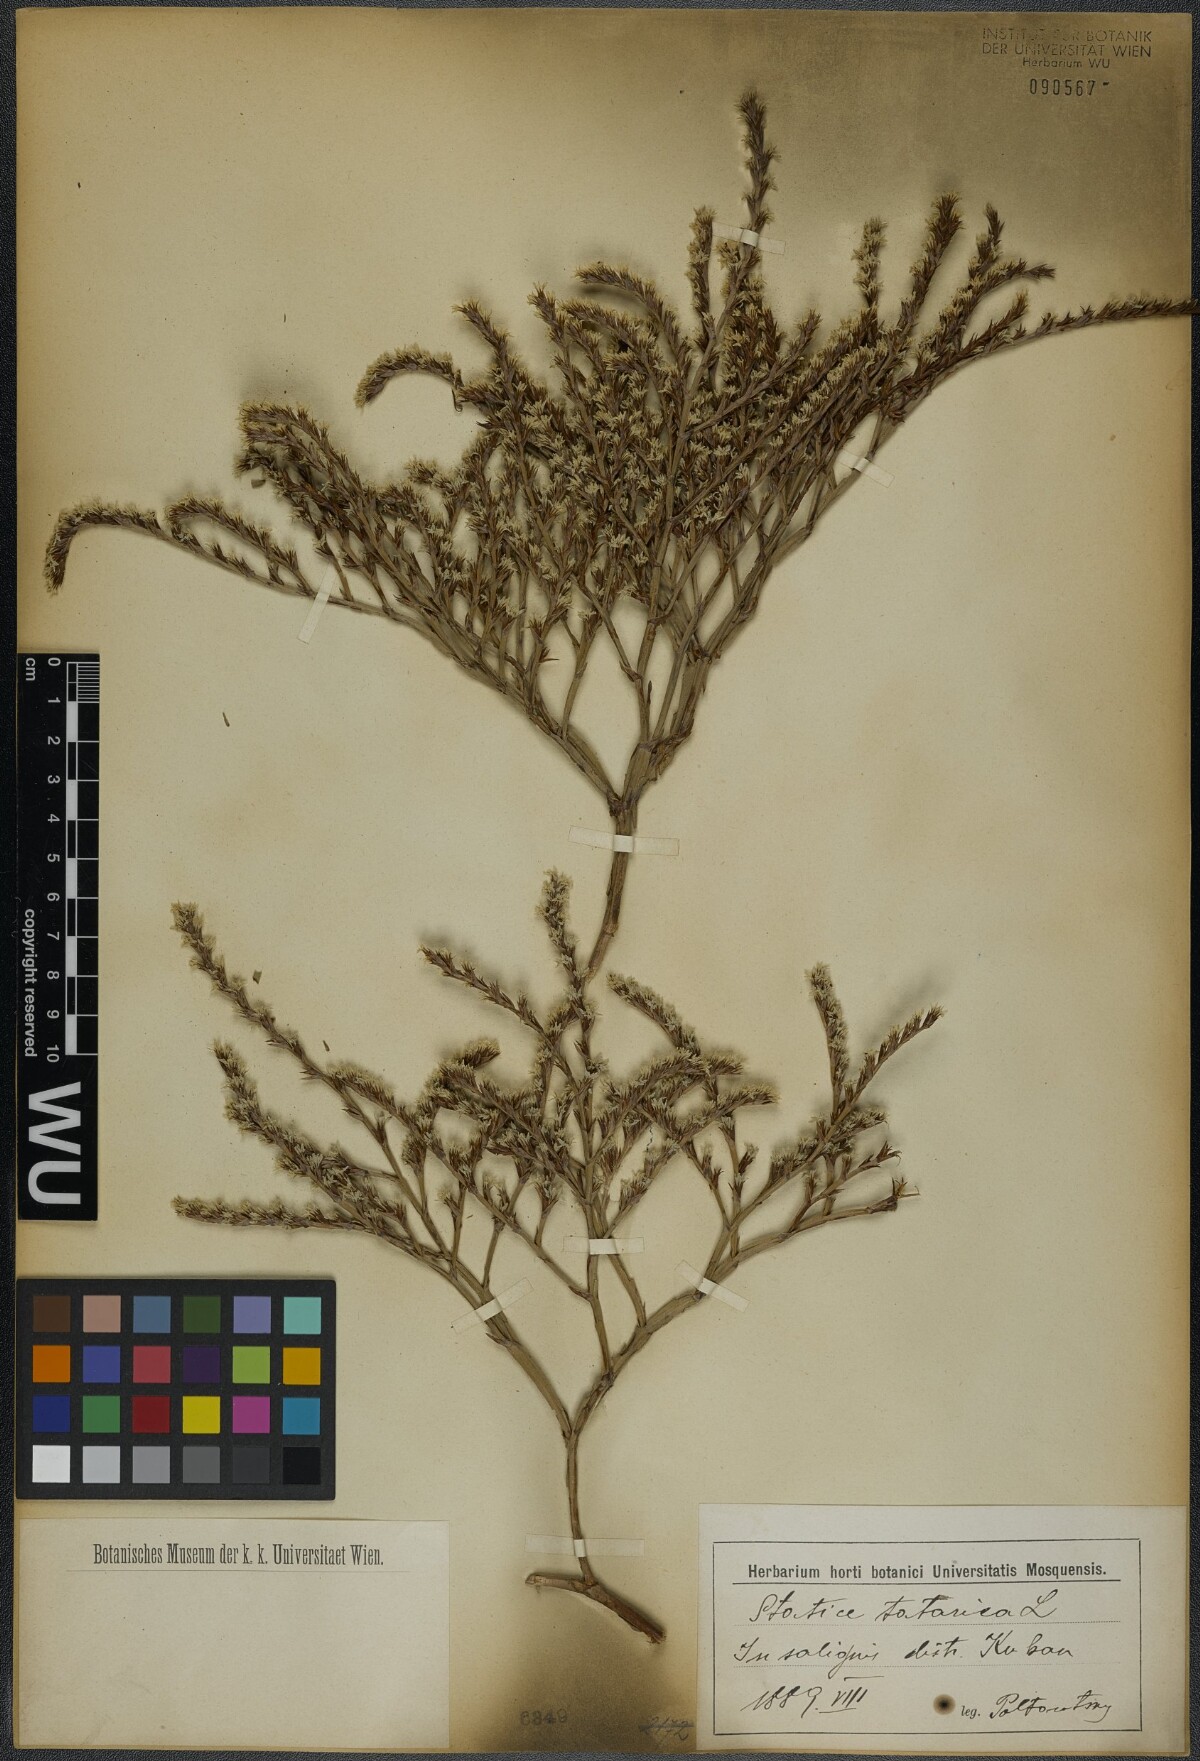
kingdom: Plantae
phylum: Tracheophyta
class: Magnoliopsida
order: Caryophyllales
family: Plumbaginaceae
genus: Goniolimon
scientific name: Goniolimon tataricum
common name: Statice
